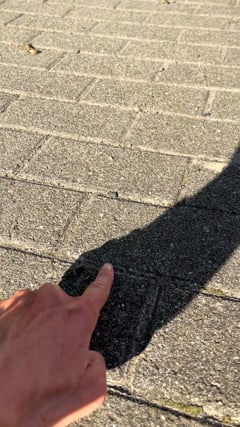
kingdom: Animalia
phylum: Arthropoda
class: Insecta
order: Orthoptera
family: Acrididae
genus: Oedipoda
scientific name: Oedipoda caerulescens
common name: Blue-winged grasshopper
